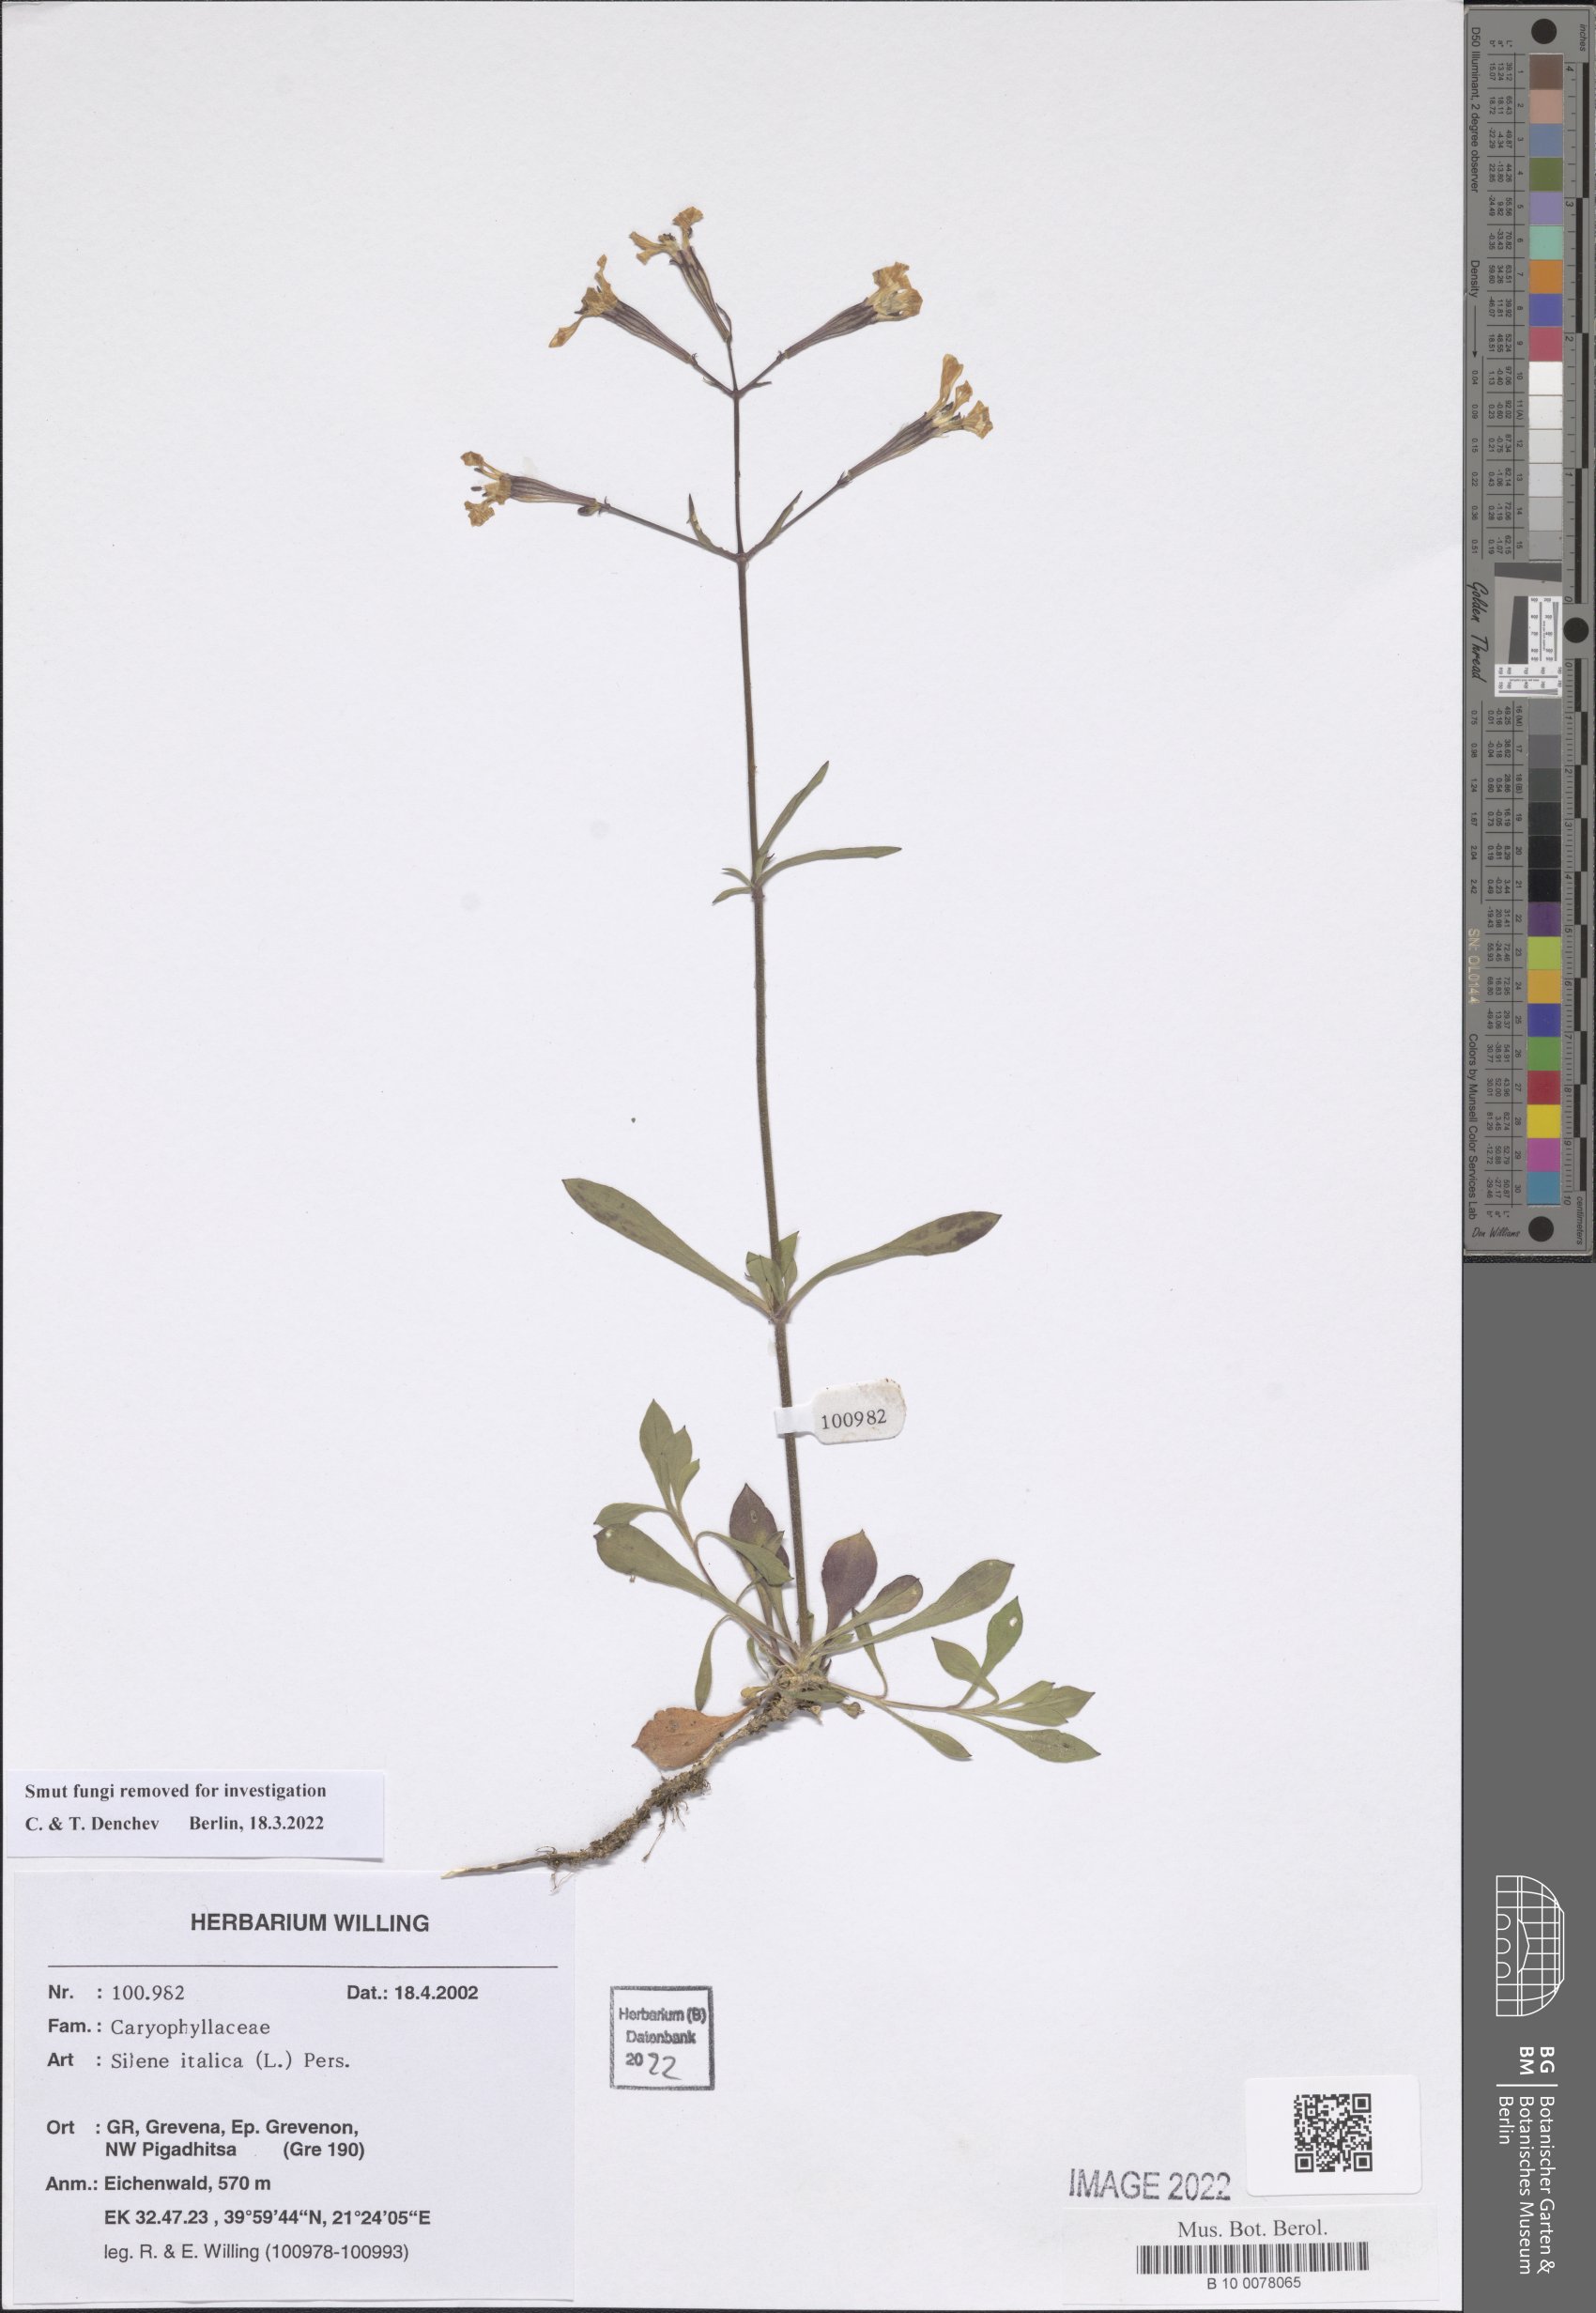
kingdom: Plantae
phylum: Tracheophyta
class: Magnoliopsida
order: Caryophyllales
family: Caryophyllaceae
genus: Silene
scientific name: Silene italica
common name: Italian catchfly
